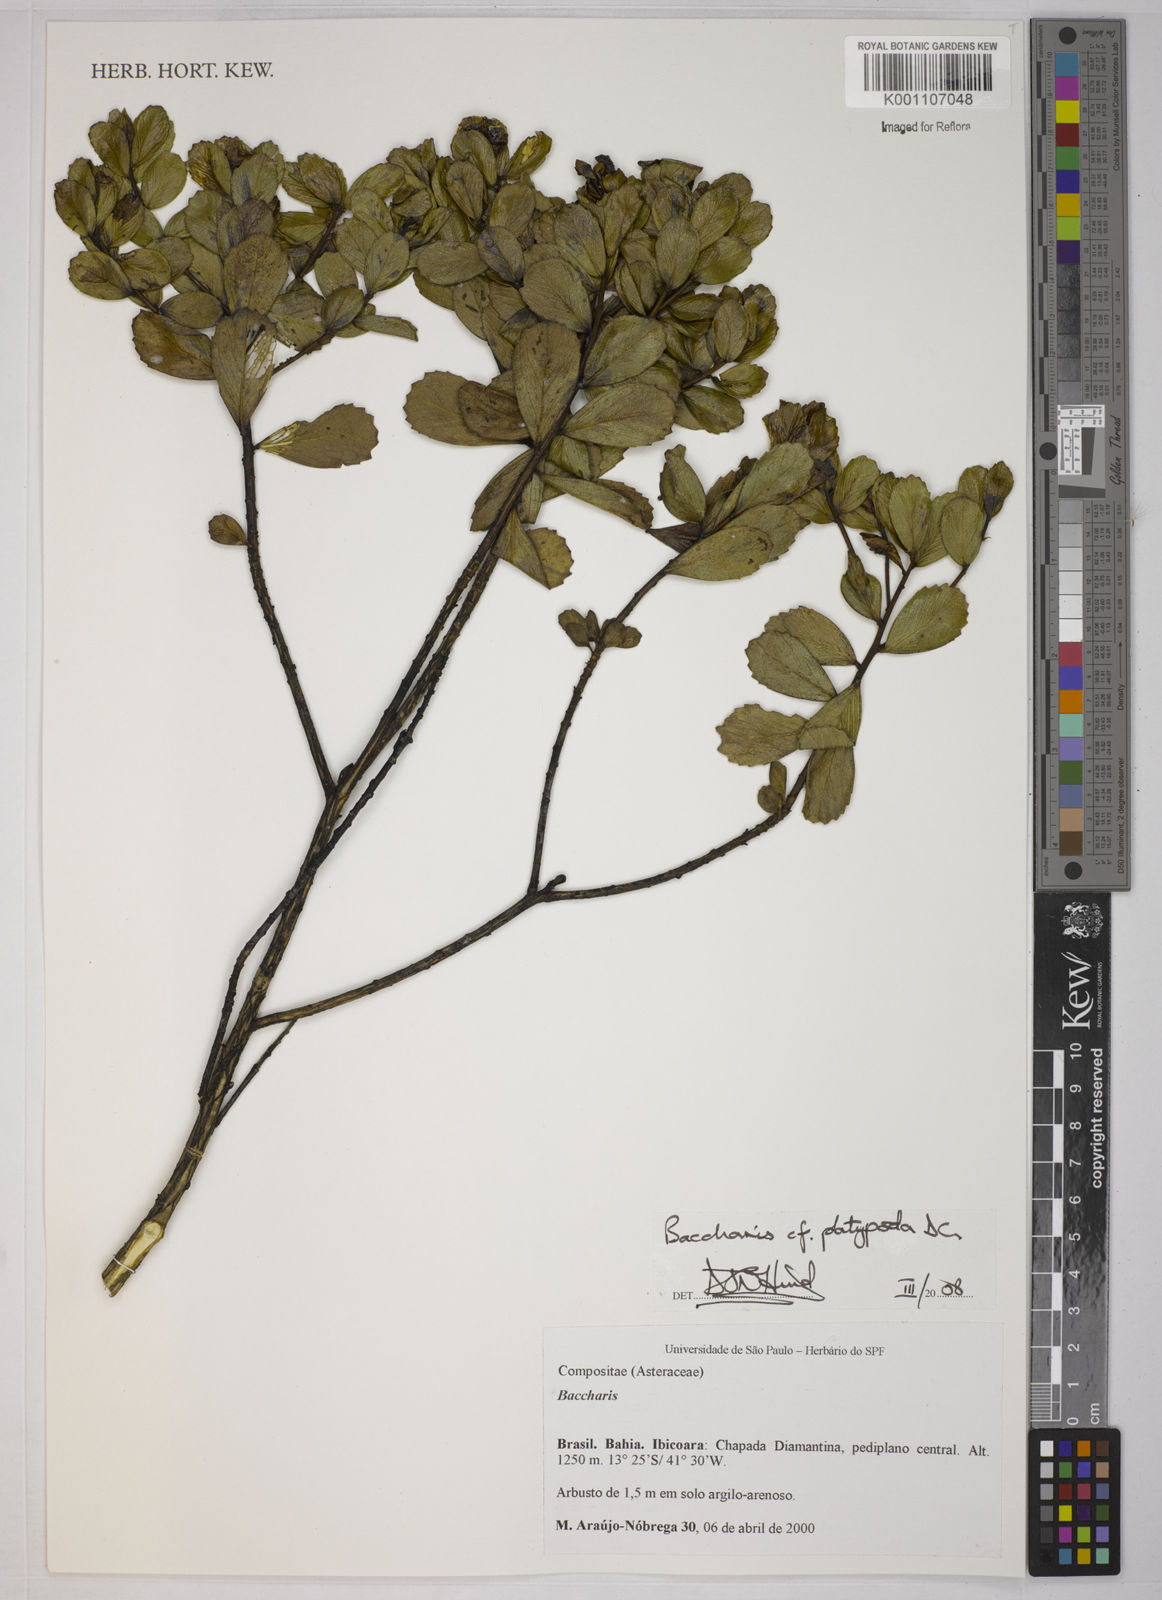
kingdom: Plantae
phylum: Tracheophyta
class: Magnoliopsida
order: Asterales
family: Asteraceae
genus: Baccharis
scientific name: Baccharis platypoda
